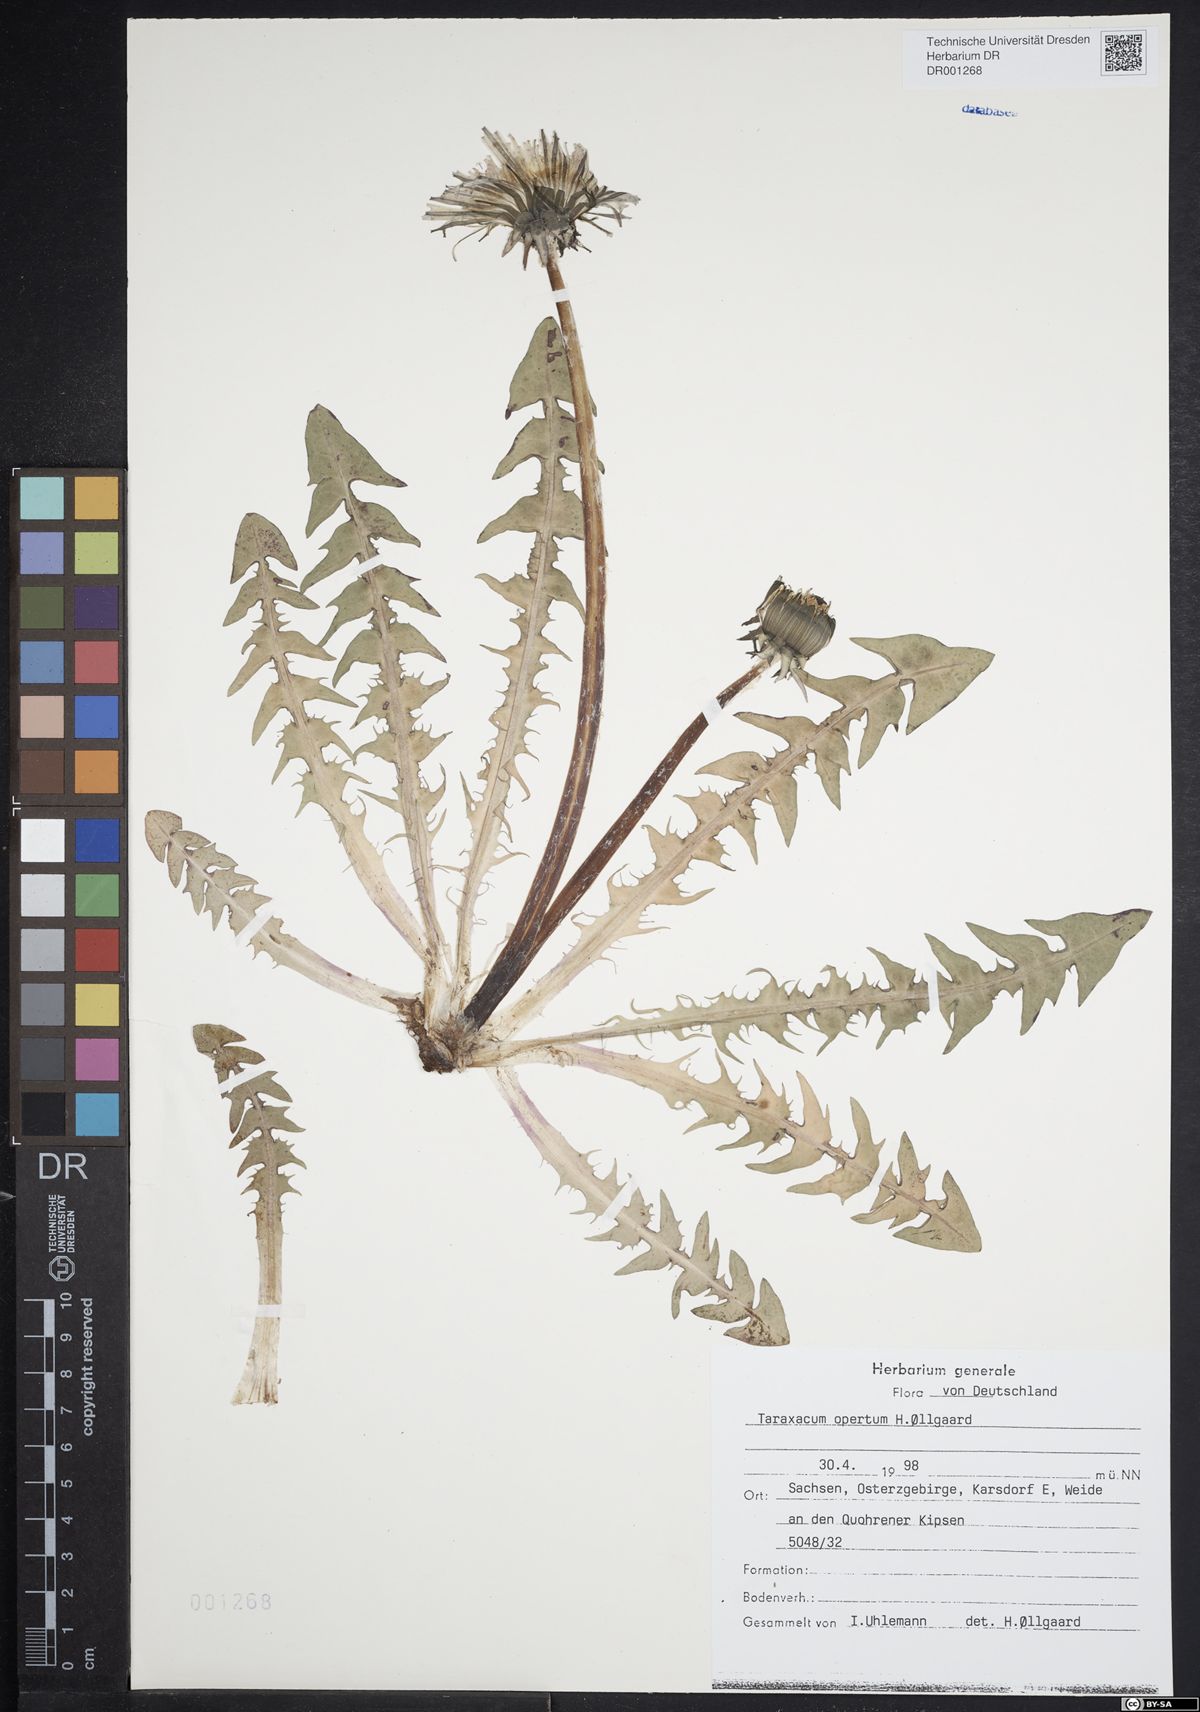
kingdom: Plantae
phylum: Tracheophyta
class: Magnoliopsida
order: Asterales
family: Asteraceae
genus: Taraxacum
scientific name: Taraxacum opertum
